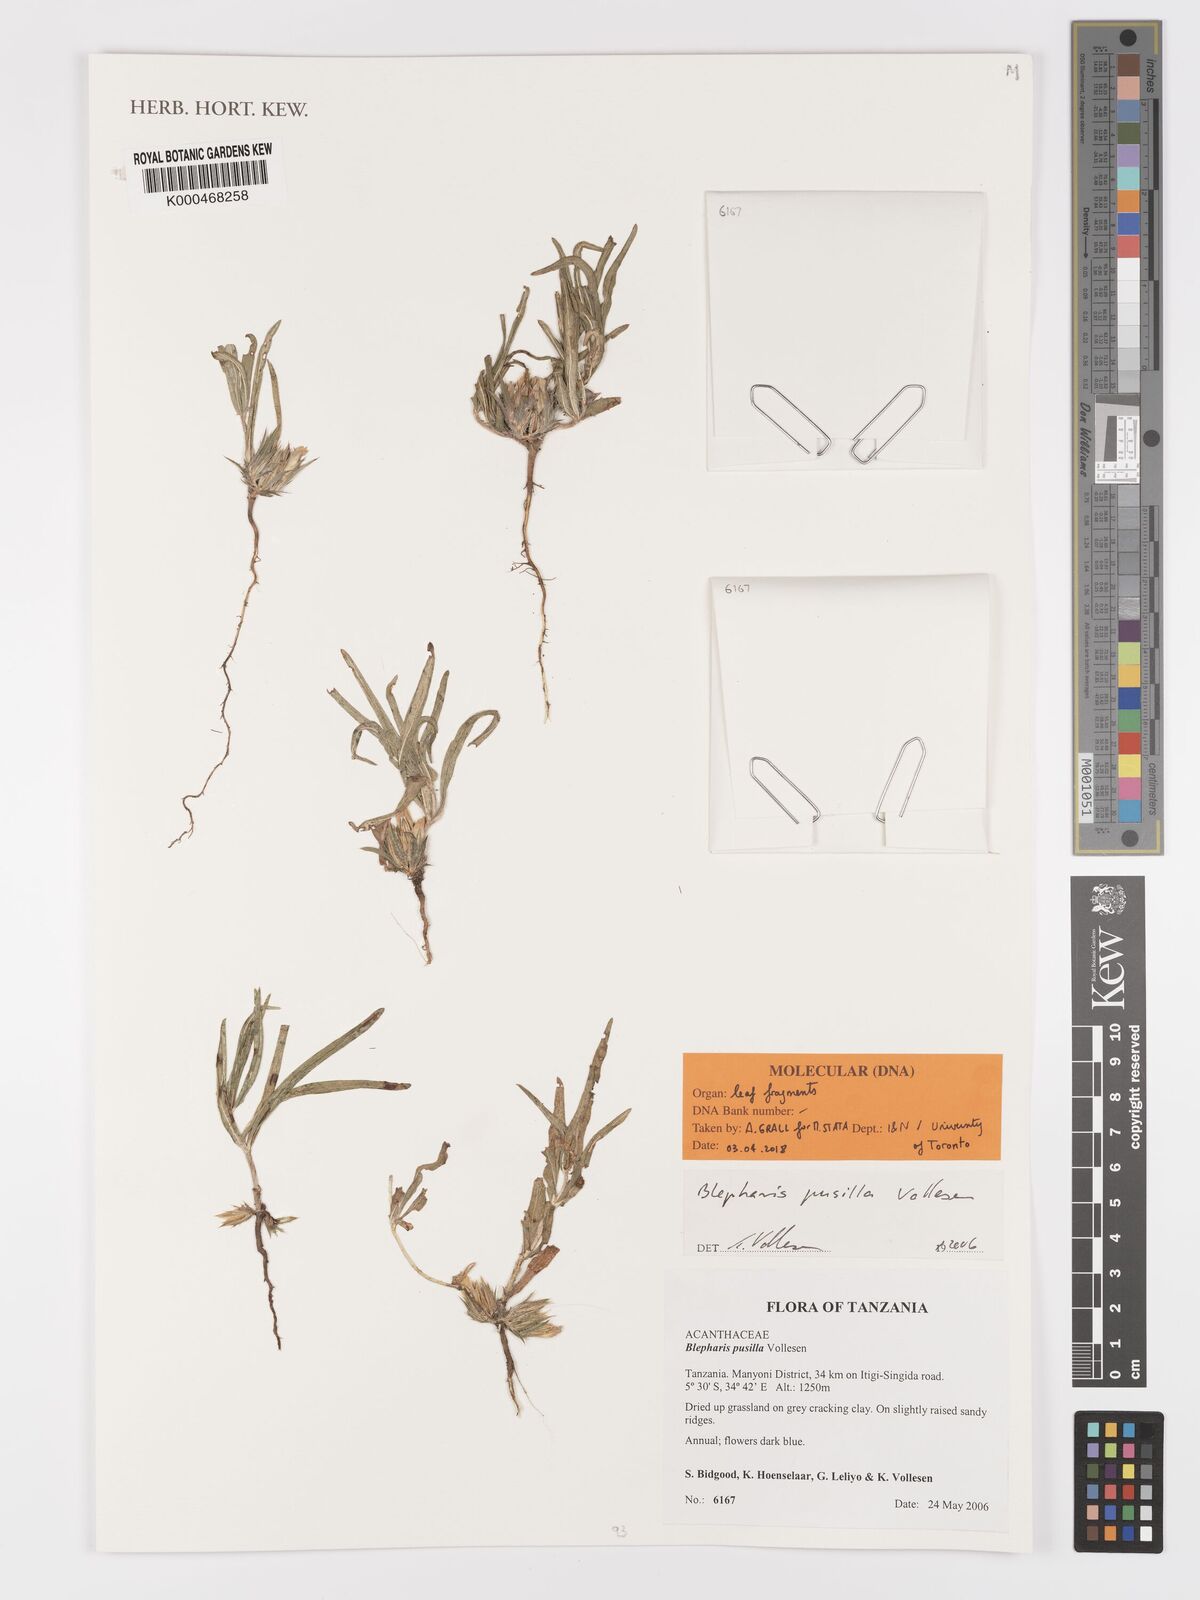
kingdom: Plantae
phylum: Tracheophyta
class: Magnoliopsida
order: Lamiales
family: Acanthaceae
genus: Blepharis
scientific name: Blepharis pusilla
